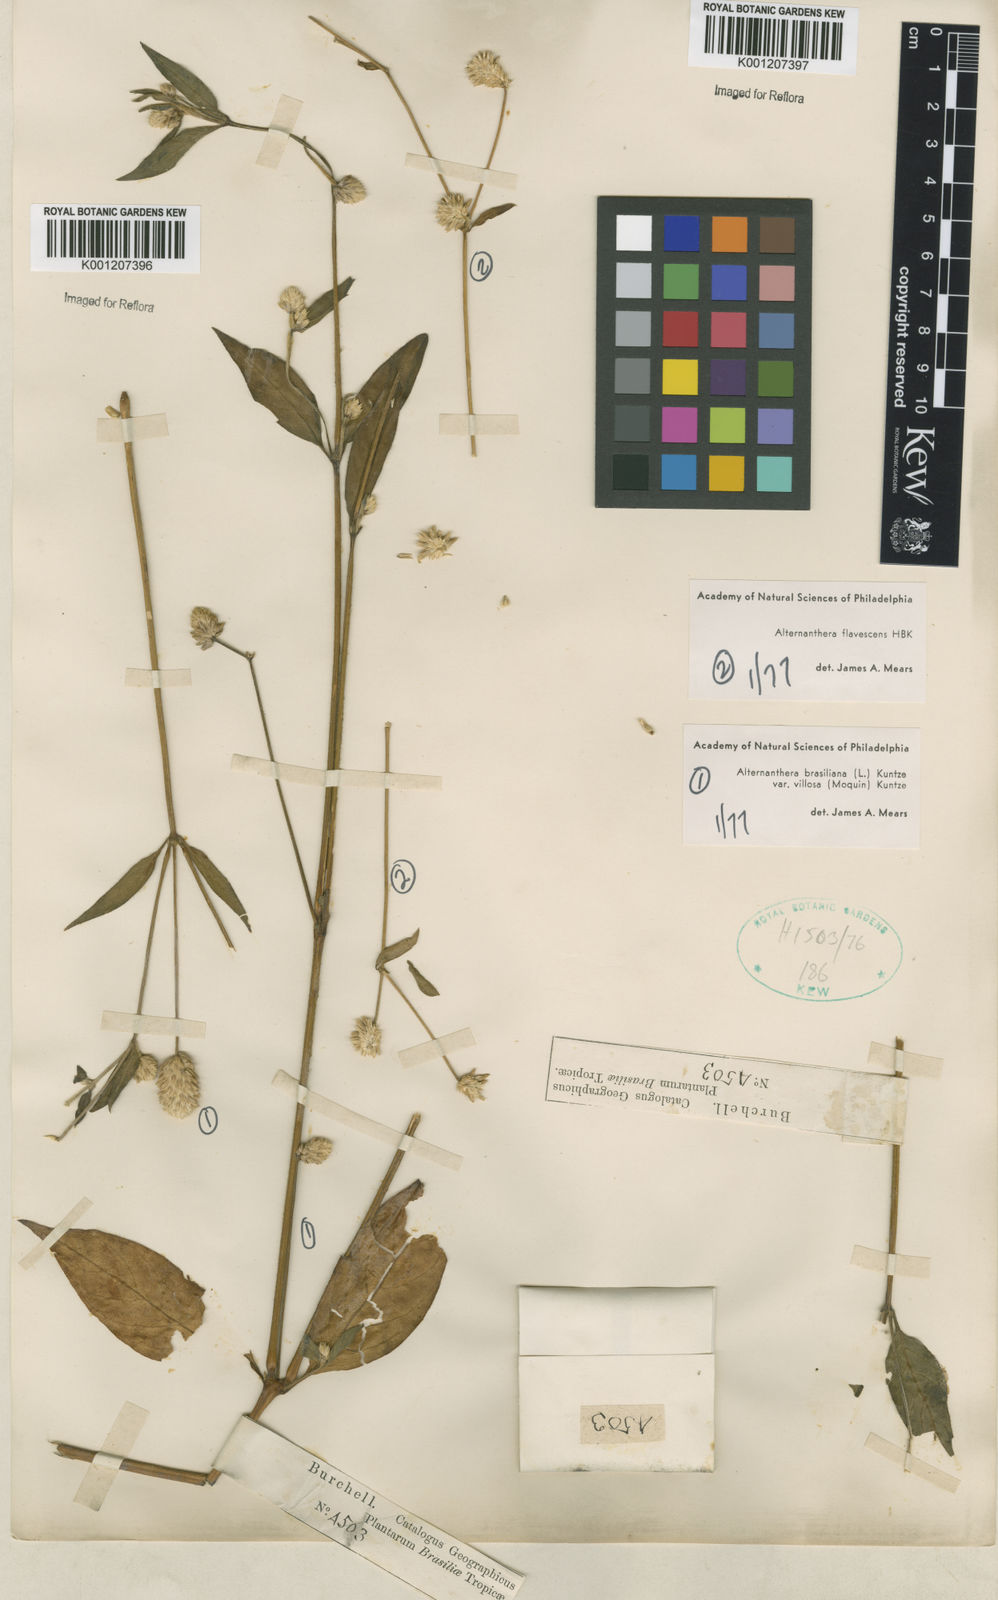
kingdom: Plantae
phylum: Tracheophyta
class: Magnoliopsida
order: Caryophyllales
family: Amaranthaceae
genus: Alternanthera
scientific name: Alternanthera flavescens
